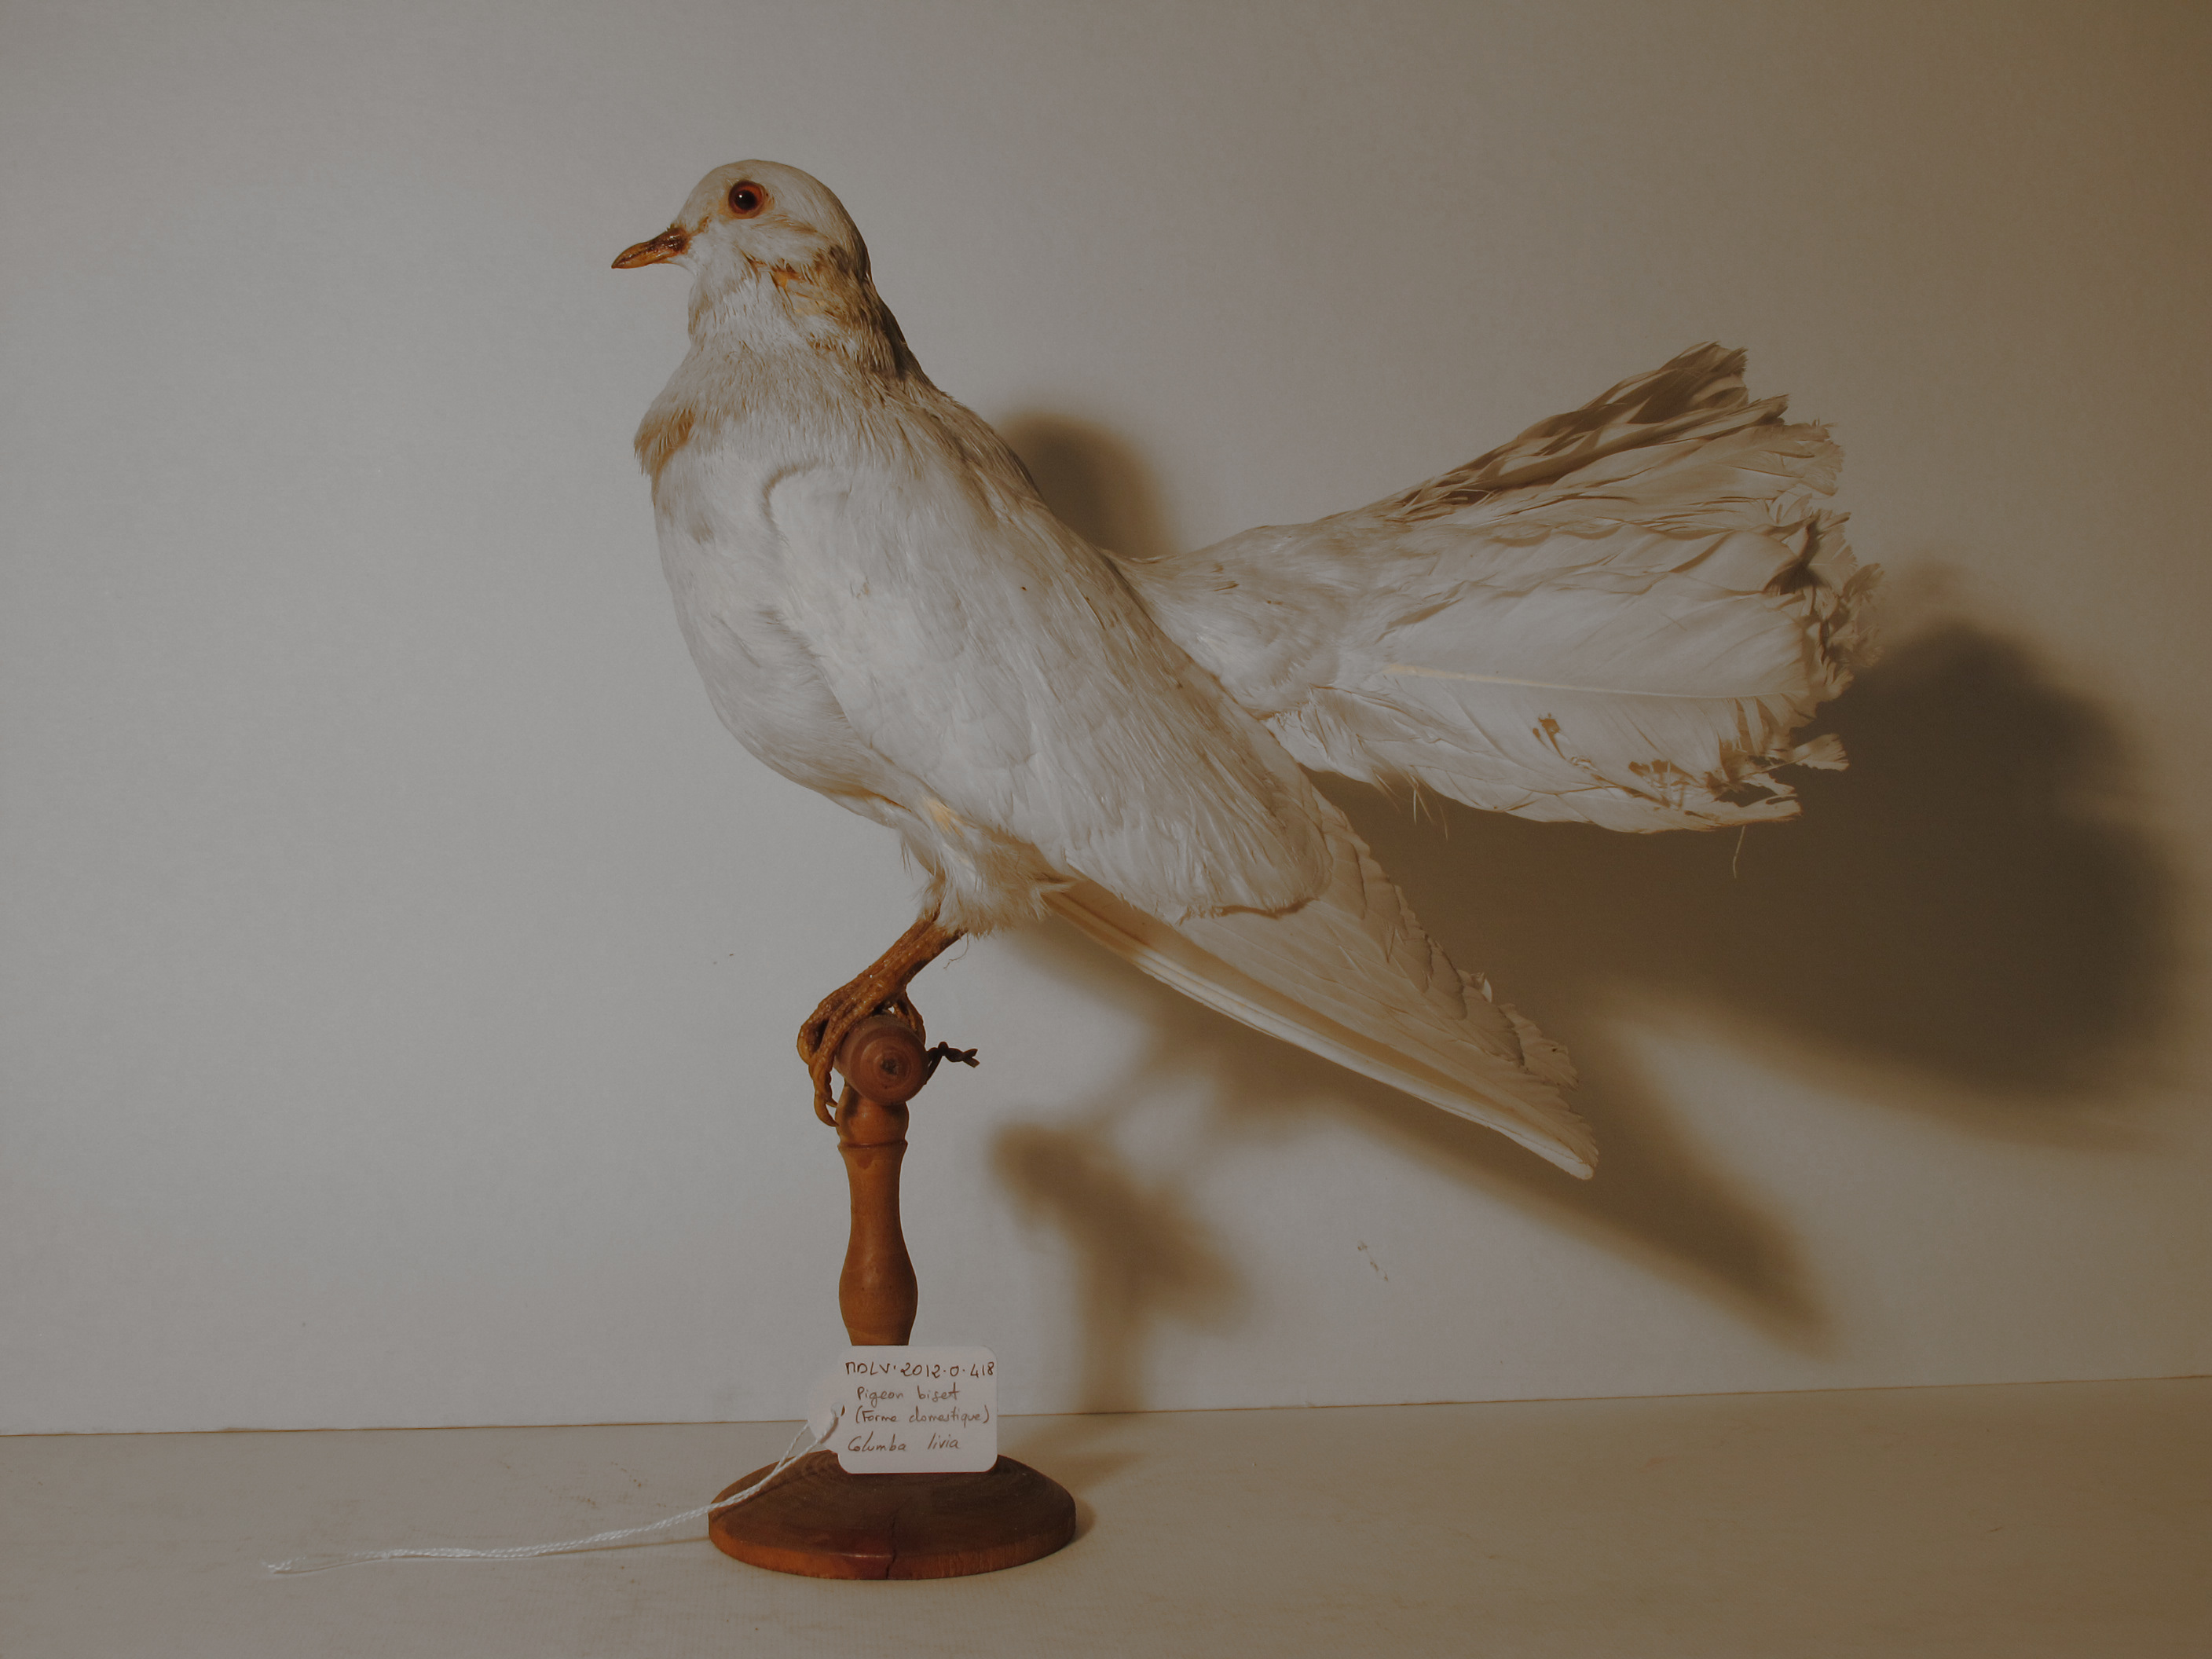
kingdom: Animalia
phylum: Chordata
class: Aves
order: Columbiformes
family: Columbidae
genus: Columba
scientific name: Columba livia
